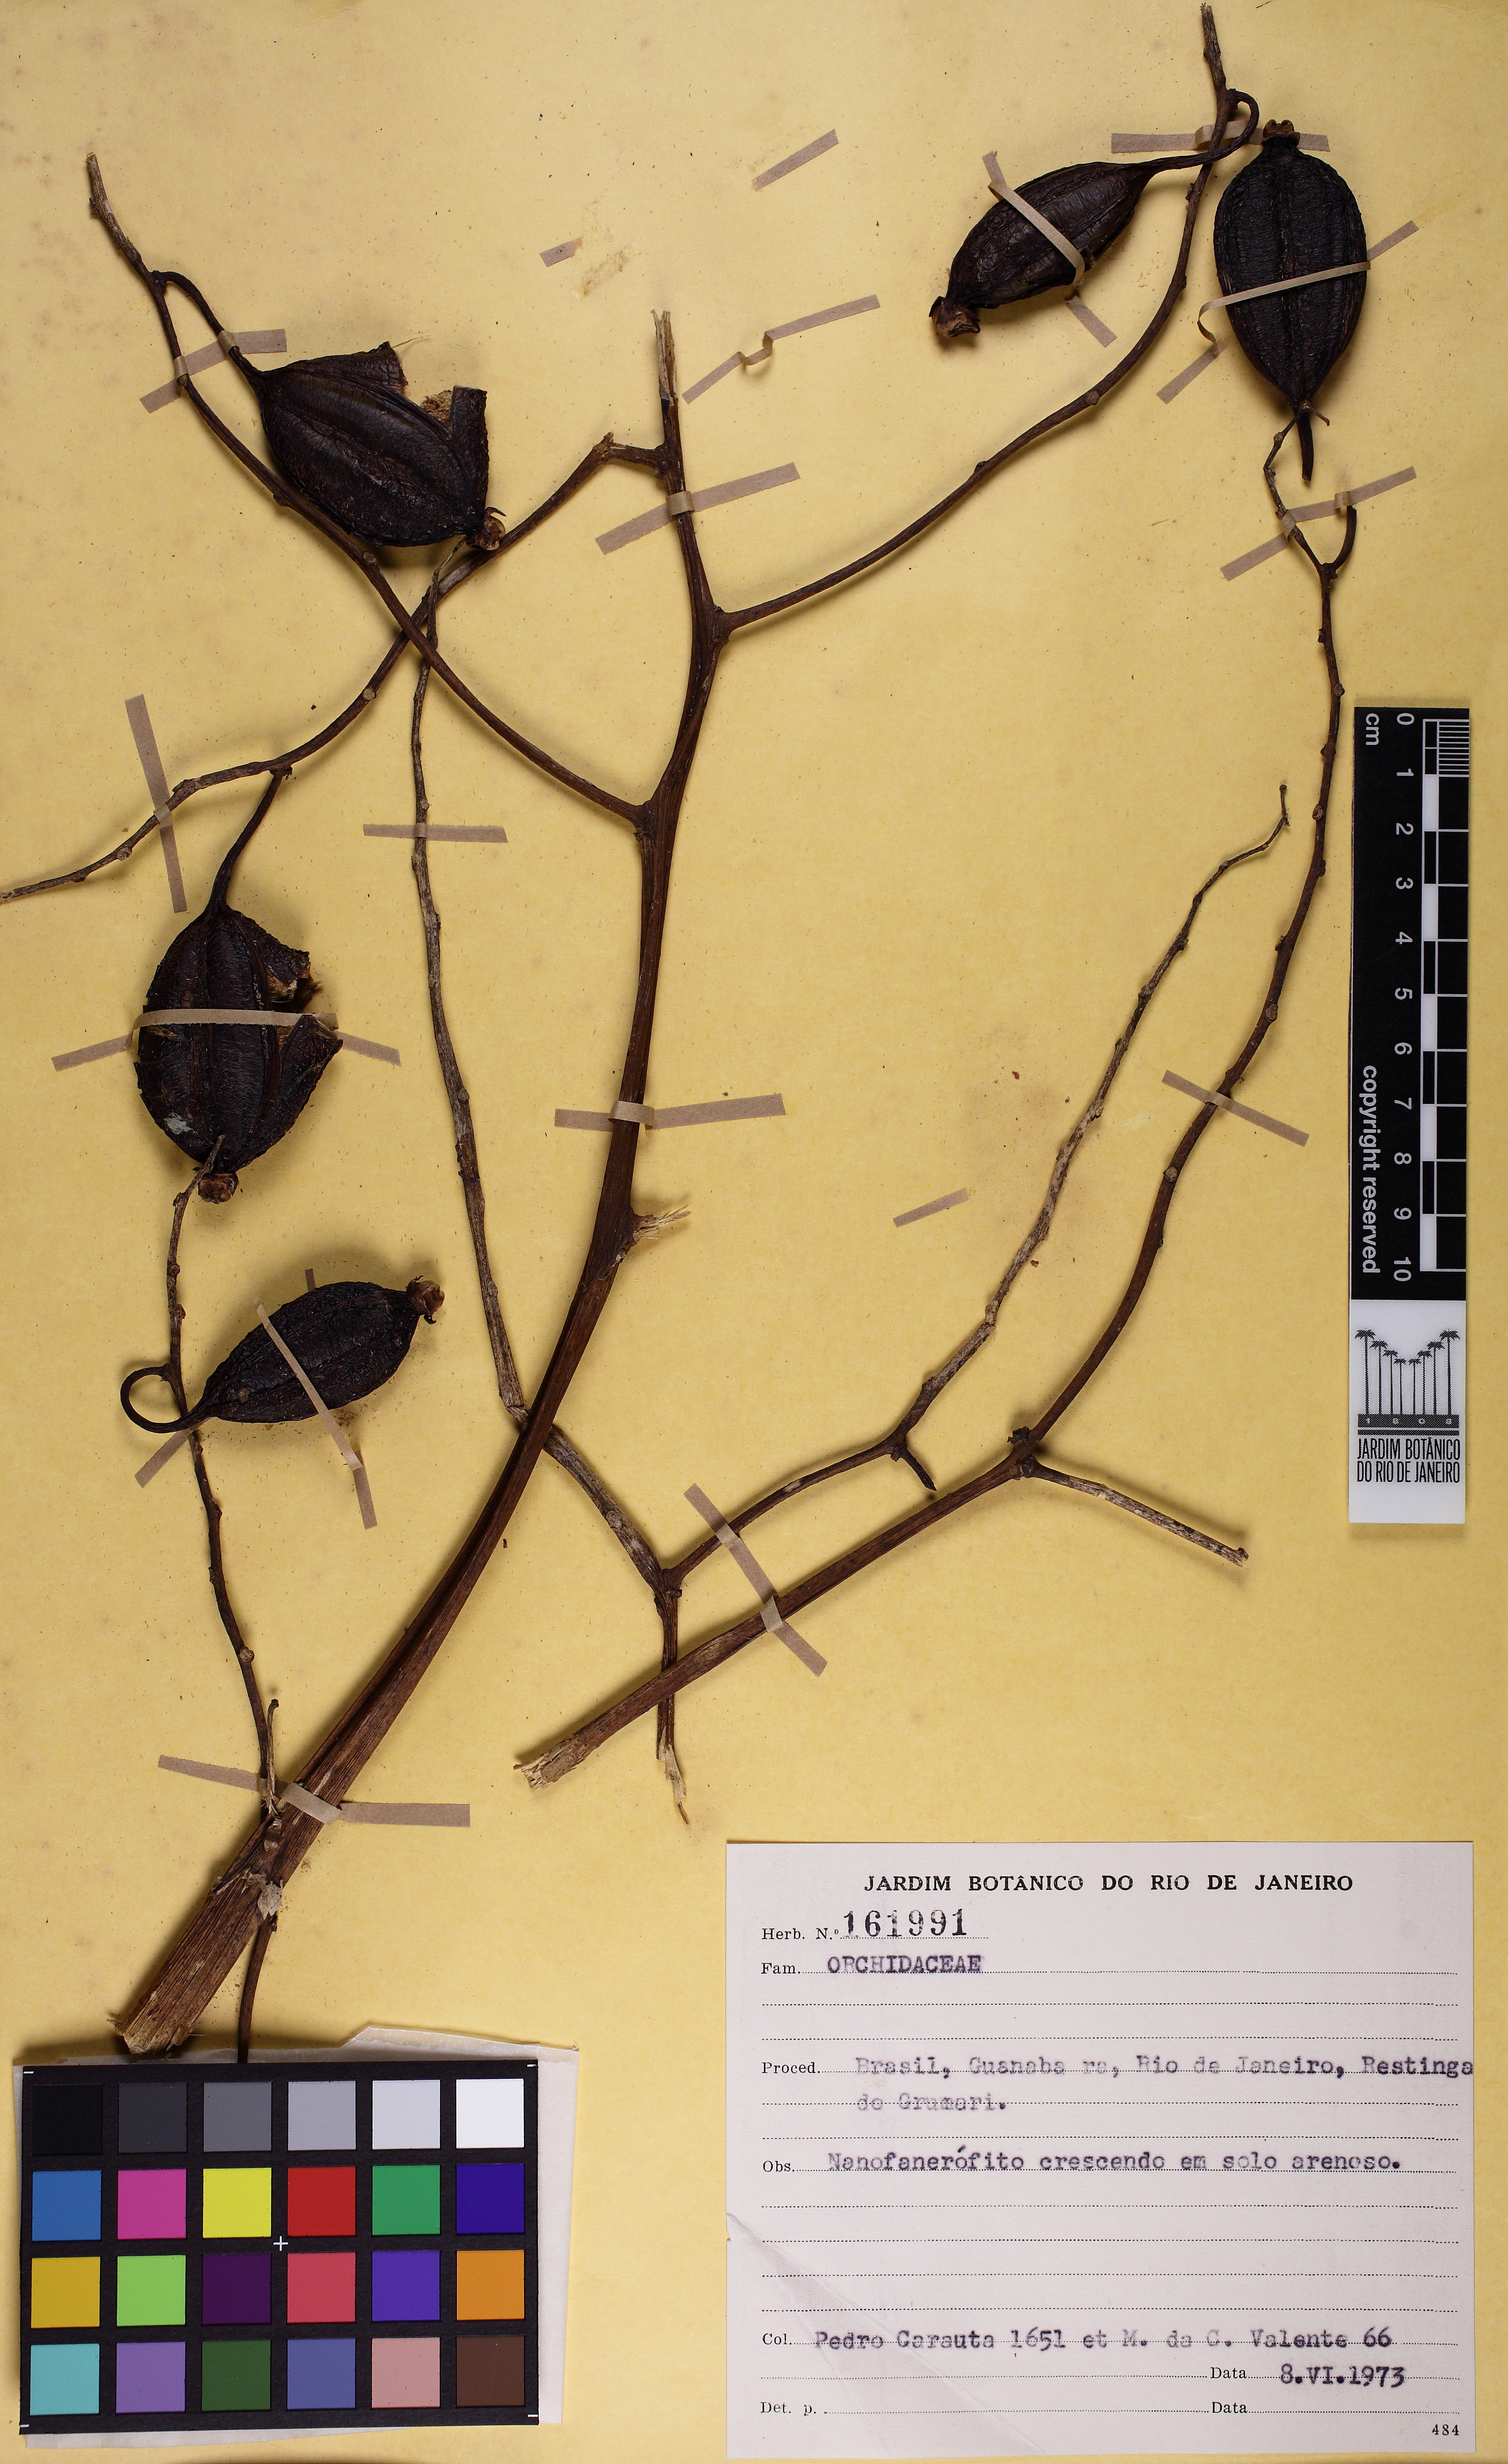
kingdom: Plantae
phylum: Tracheophyta
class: Liliopsida
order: Asparagales
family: Orchidaceae
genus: Cyrtopodium
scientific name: Cyrtopodium flavum
